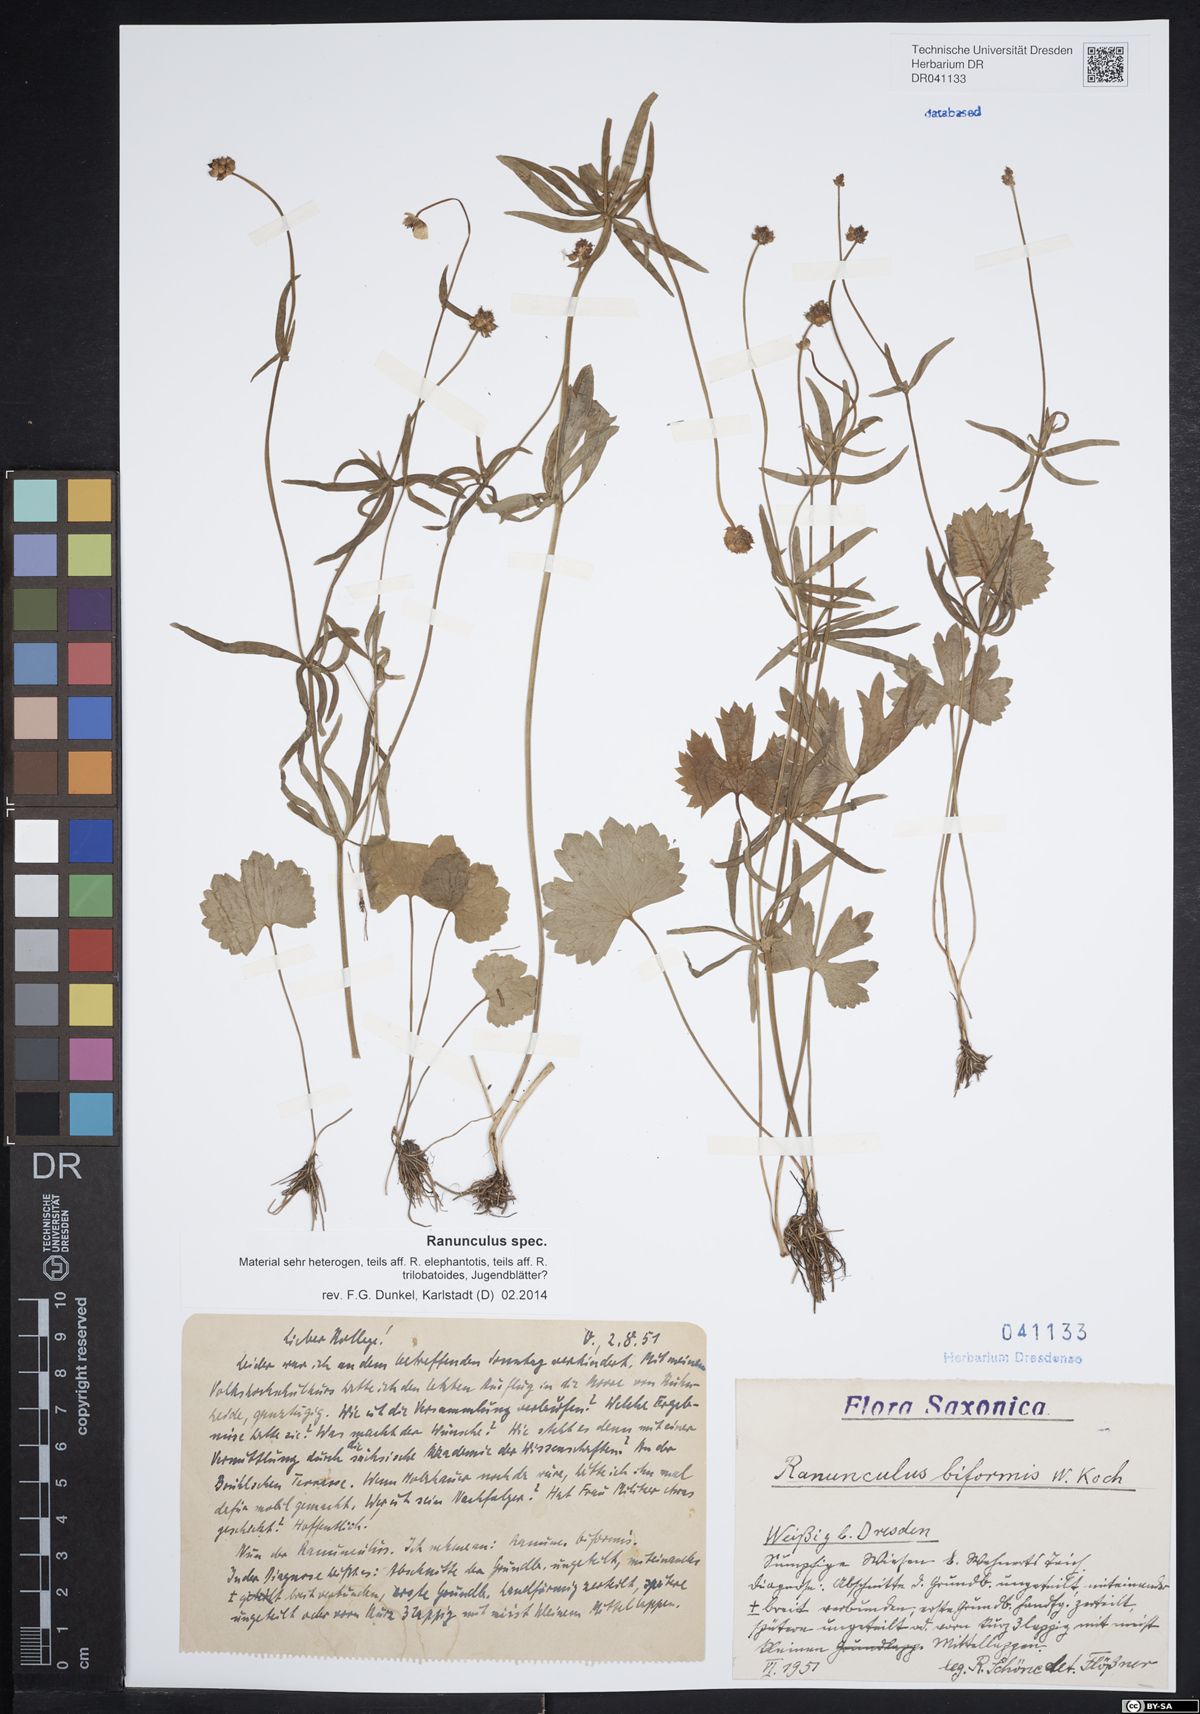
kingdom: Plantae
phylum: Tracheophyta
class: Magnoliopsida
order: Ranunculales
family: Ranunculaceae
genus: Ranunculus
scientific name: Ranunculus auricomus
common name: Goldilocks buttercup
